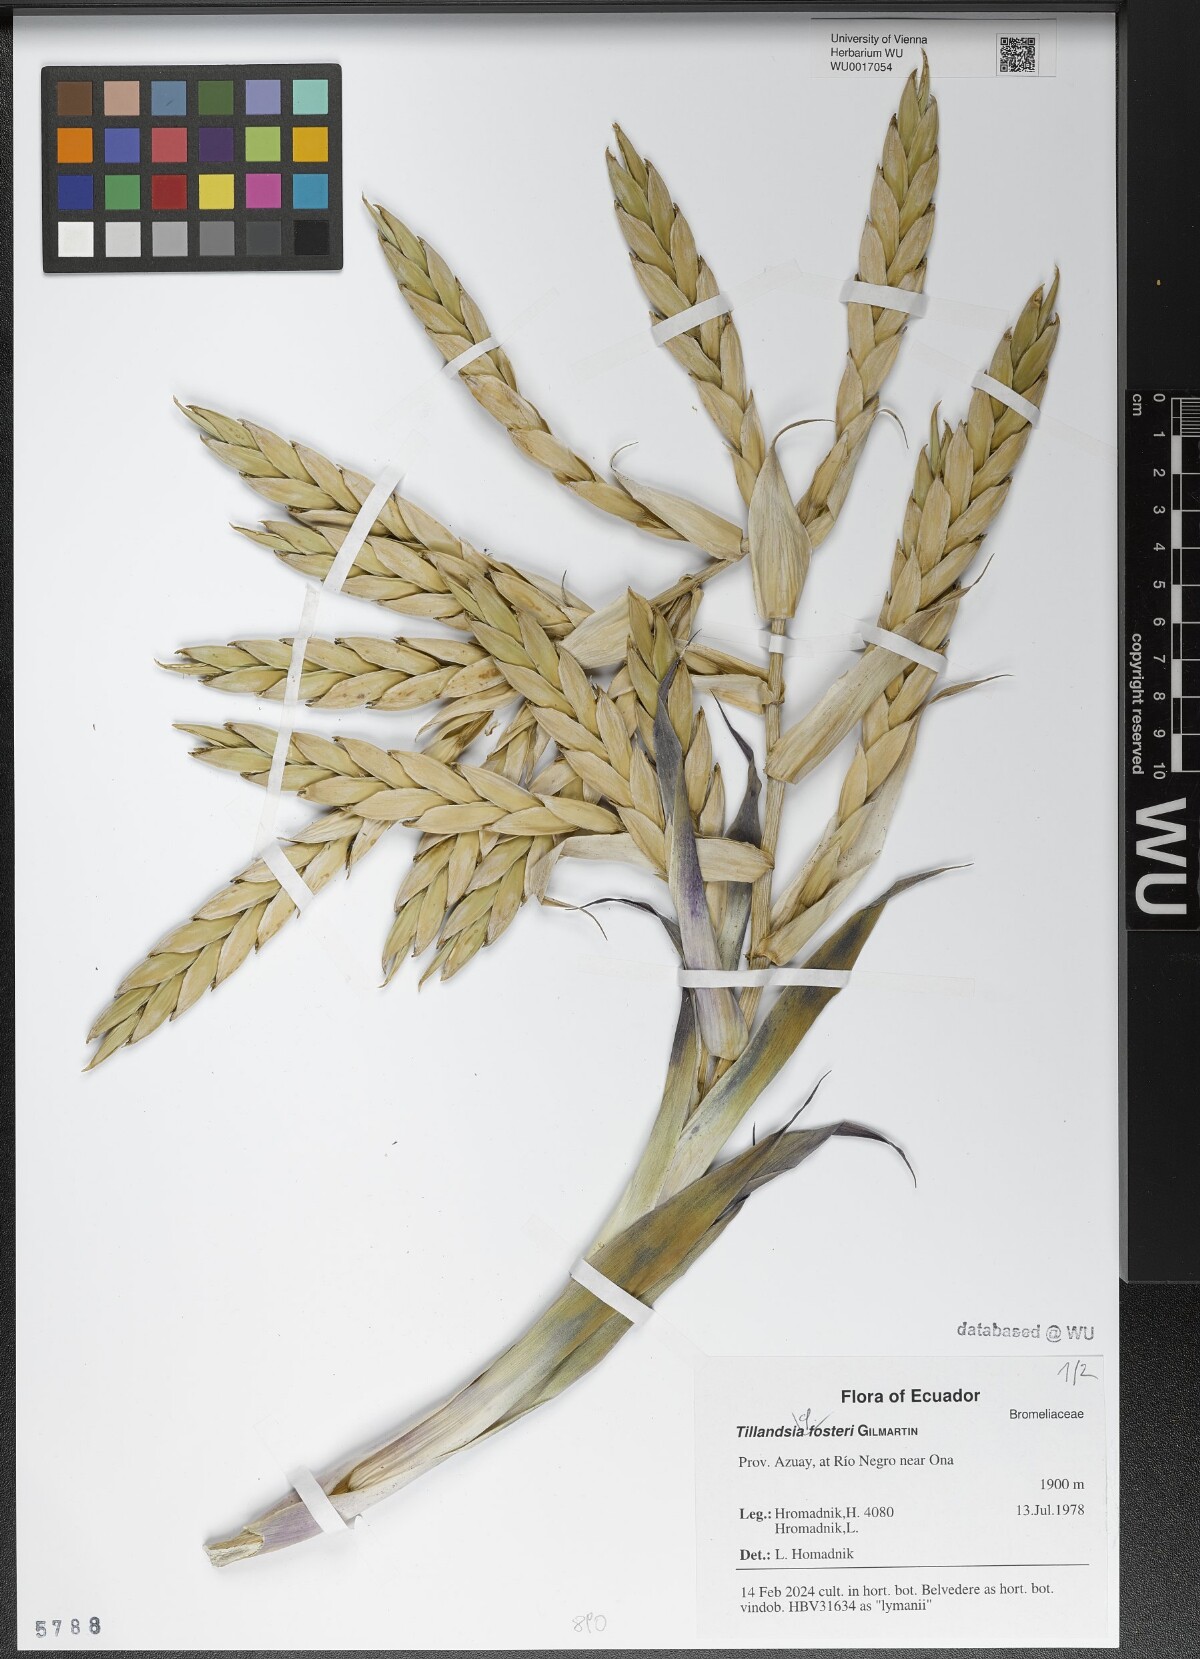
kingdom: Plantae
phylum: Tracheophyta
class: Liliopsida
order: Poales
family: Bromeliaceae
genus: Tillandsia
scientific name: Tillandsia demissa
